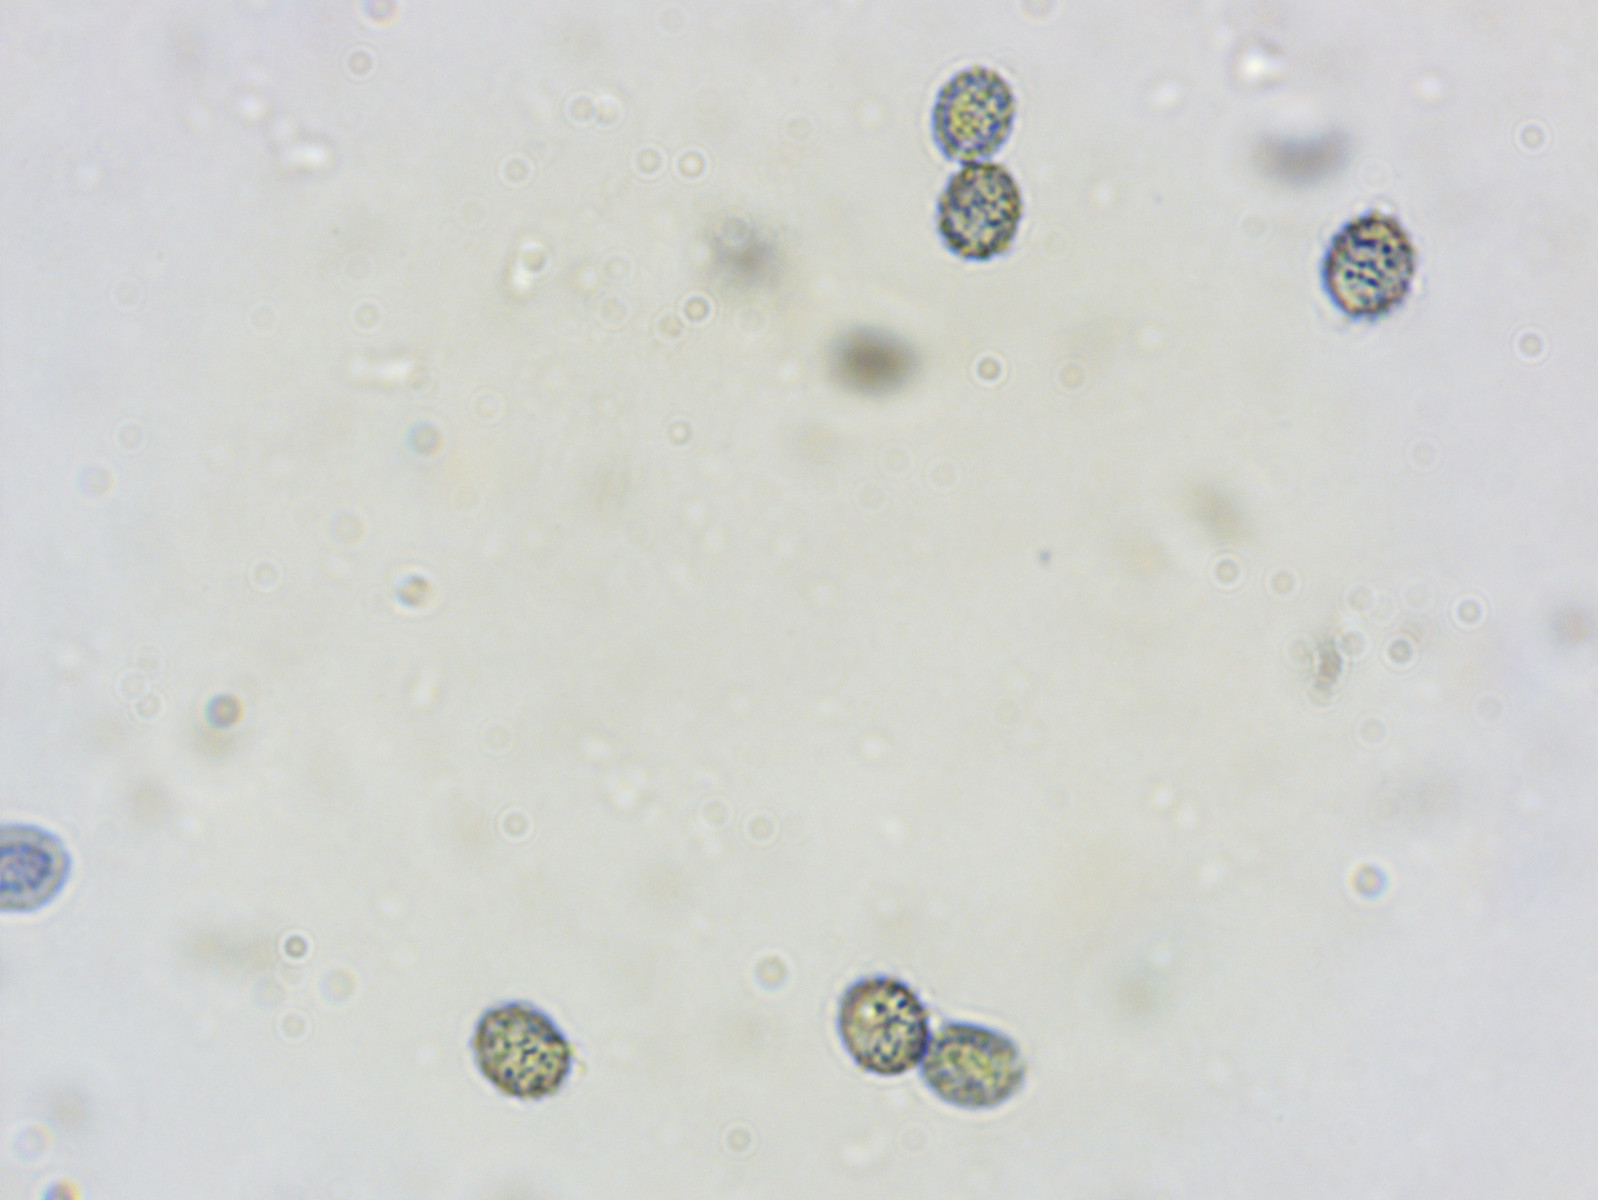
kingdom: Fungi
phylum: Basidiomycota
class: Agaricomycetes
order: Russulales
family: Russulaceae
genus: Russula
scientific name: Russula atrorubens
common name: sortrød skørhat
